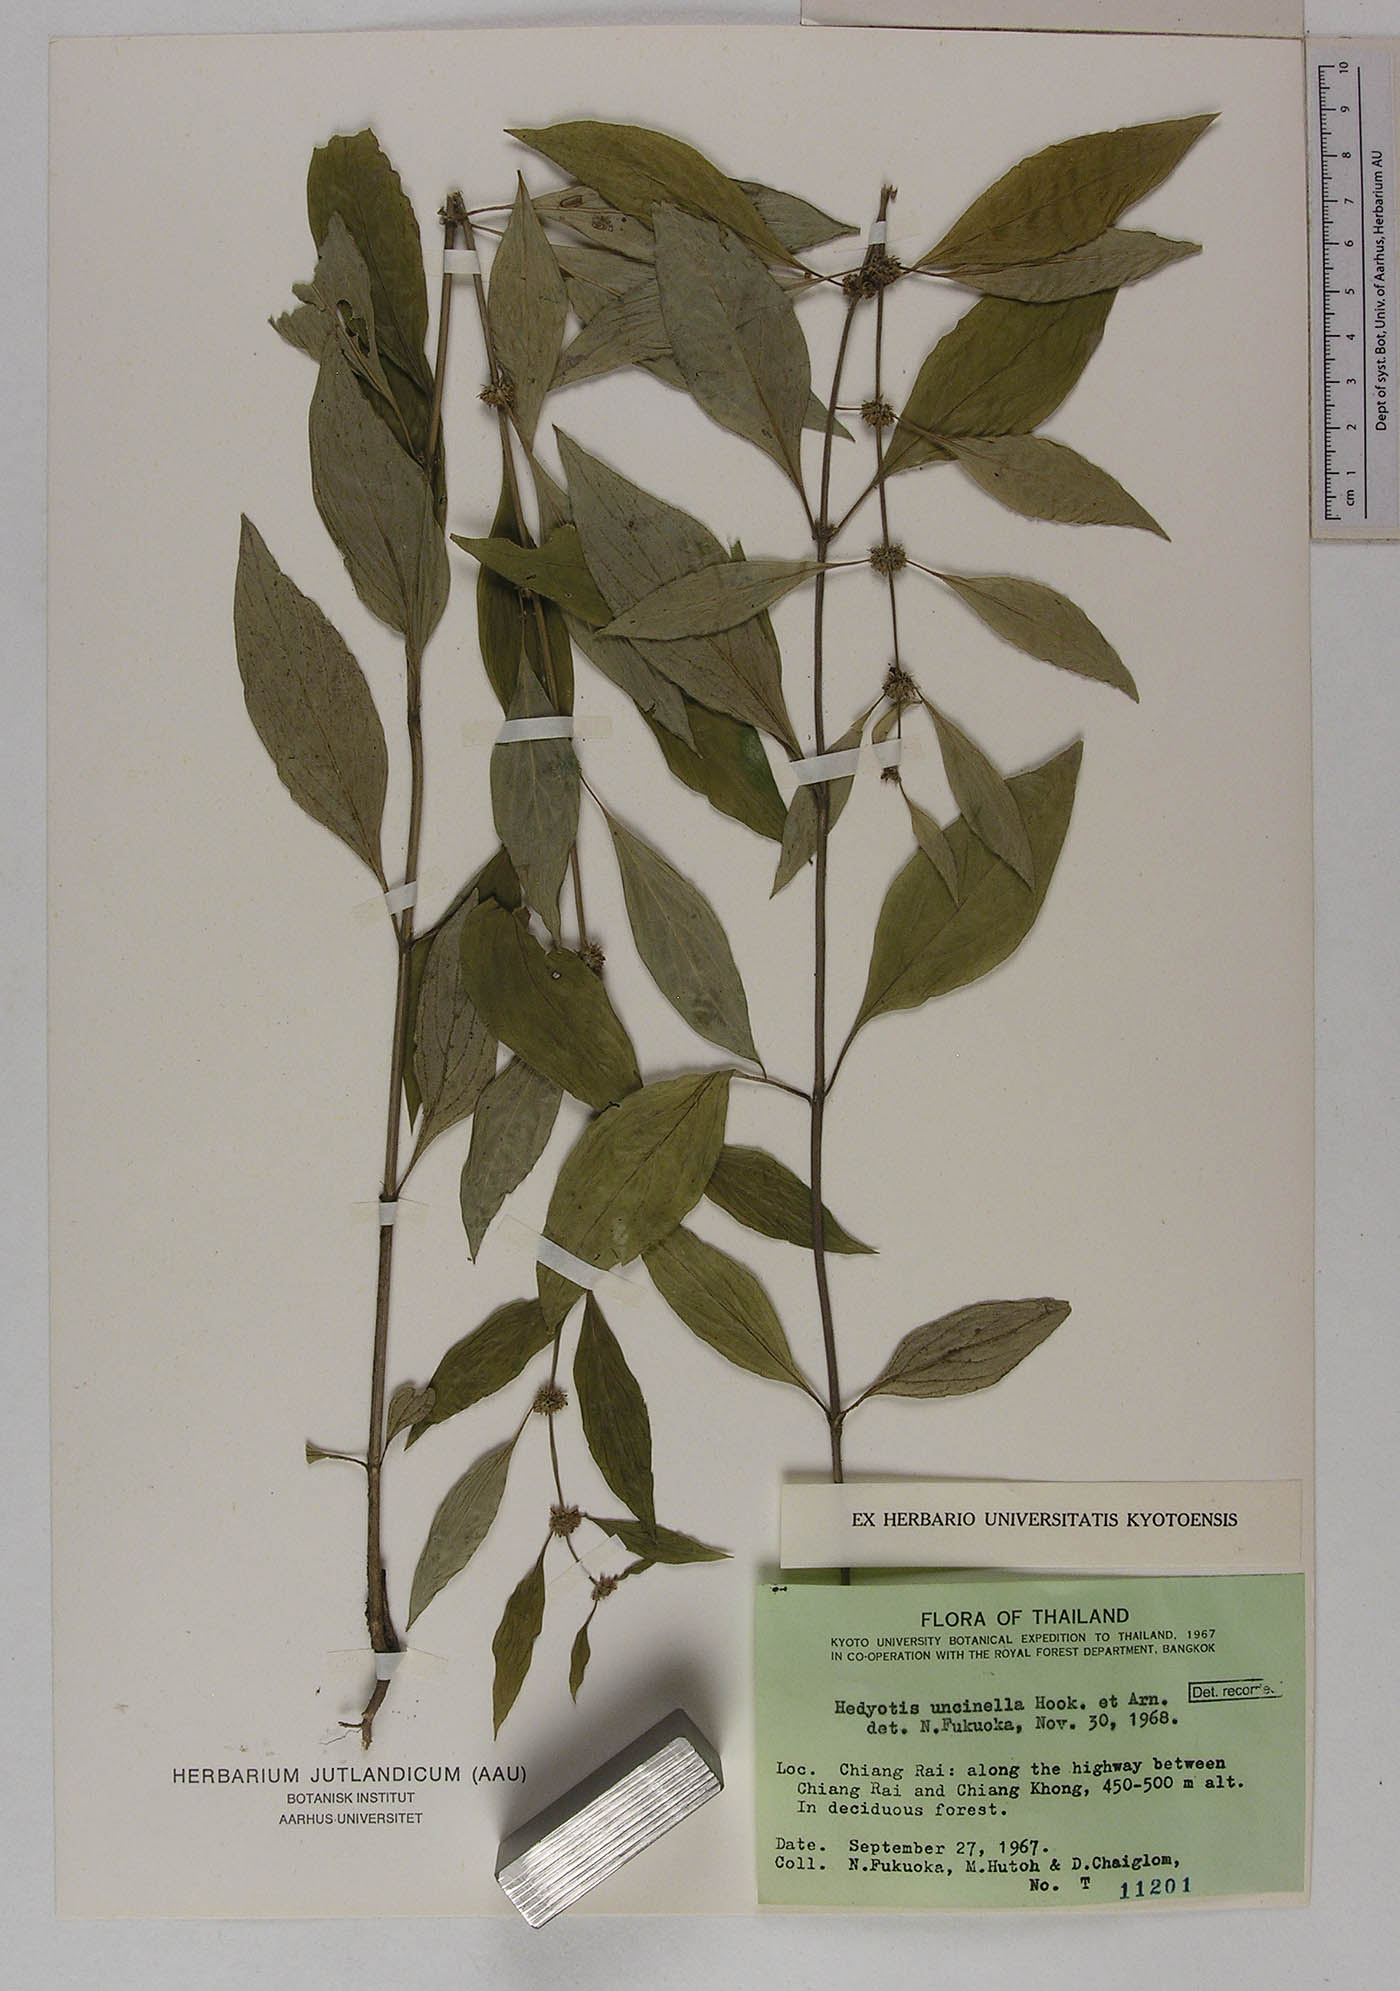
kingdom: Plantae
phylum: Tracheophyta
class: Magnoliopsida
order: Gentianales
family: Rubiaceae
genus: Hedyotis
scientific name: Hedyotis uncinella
